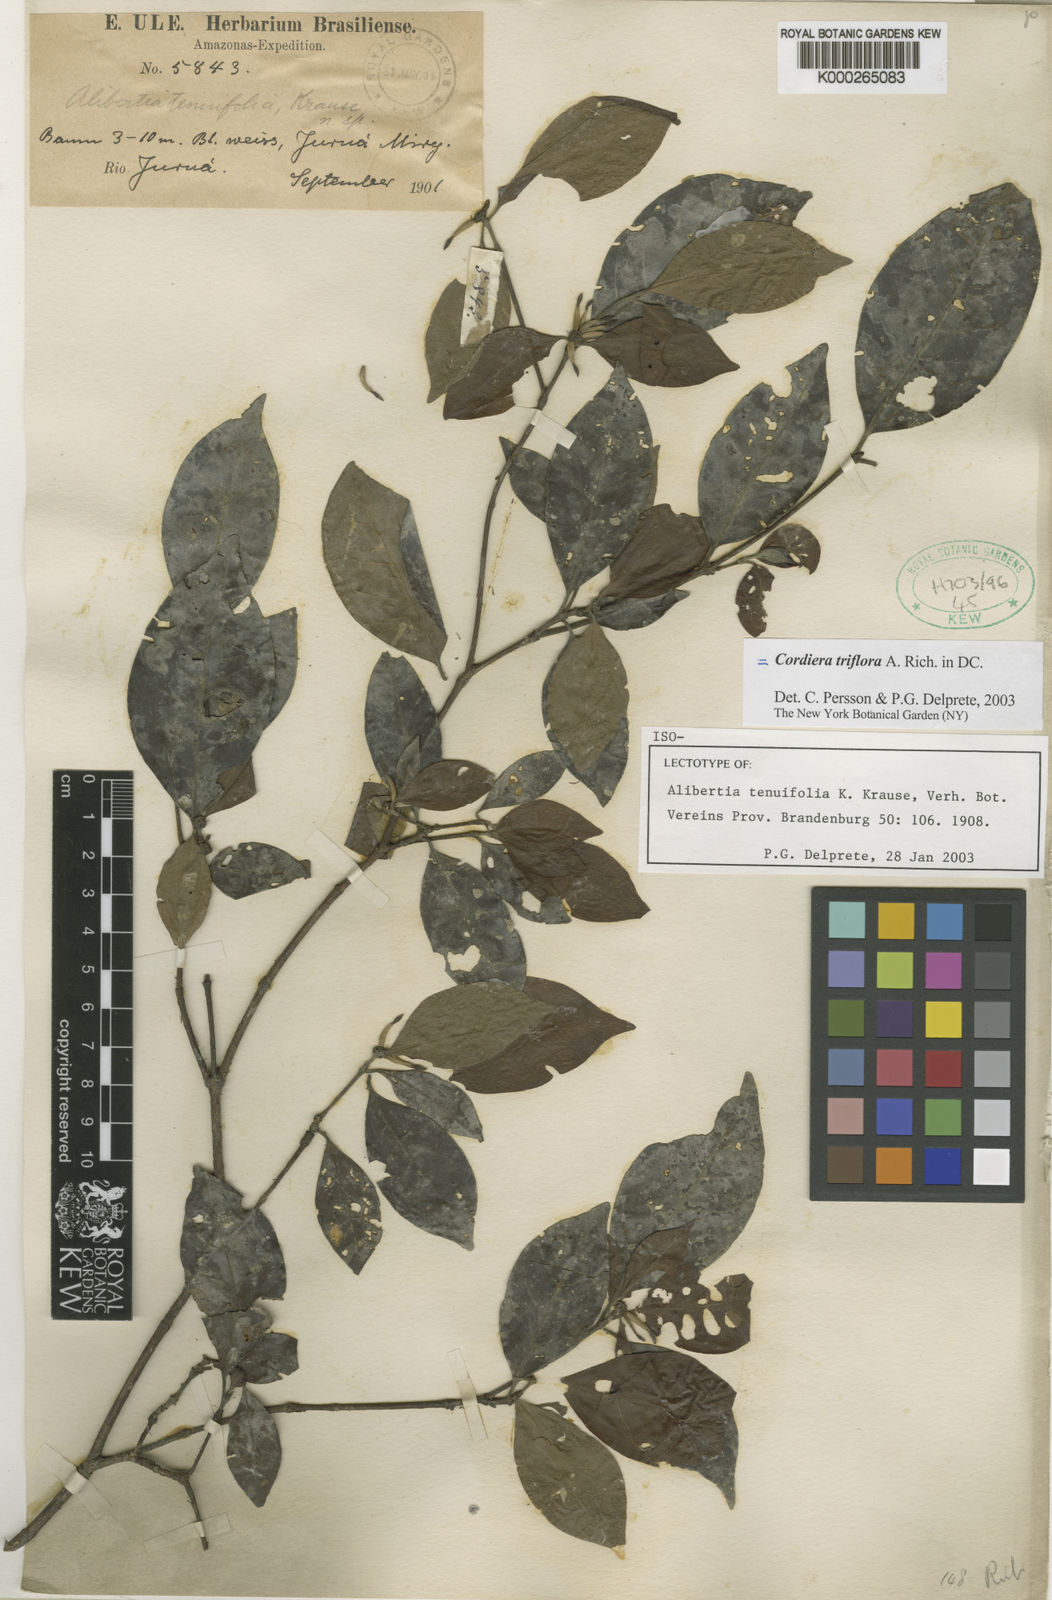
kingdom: Plantae
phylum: Tracheophyta
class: Magnoliopsida
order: Gentianales
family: Rubiaceae
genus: Cordiera
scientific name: Cordiera
